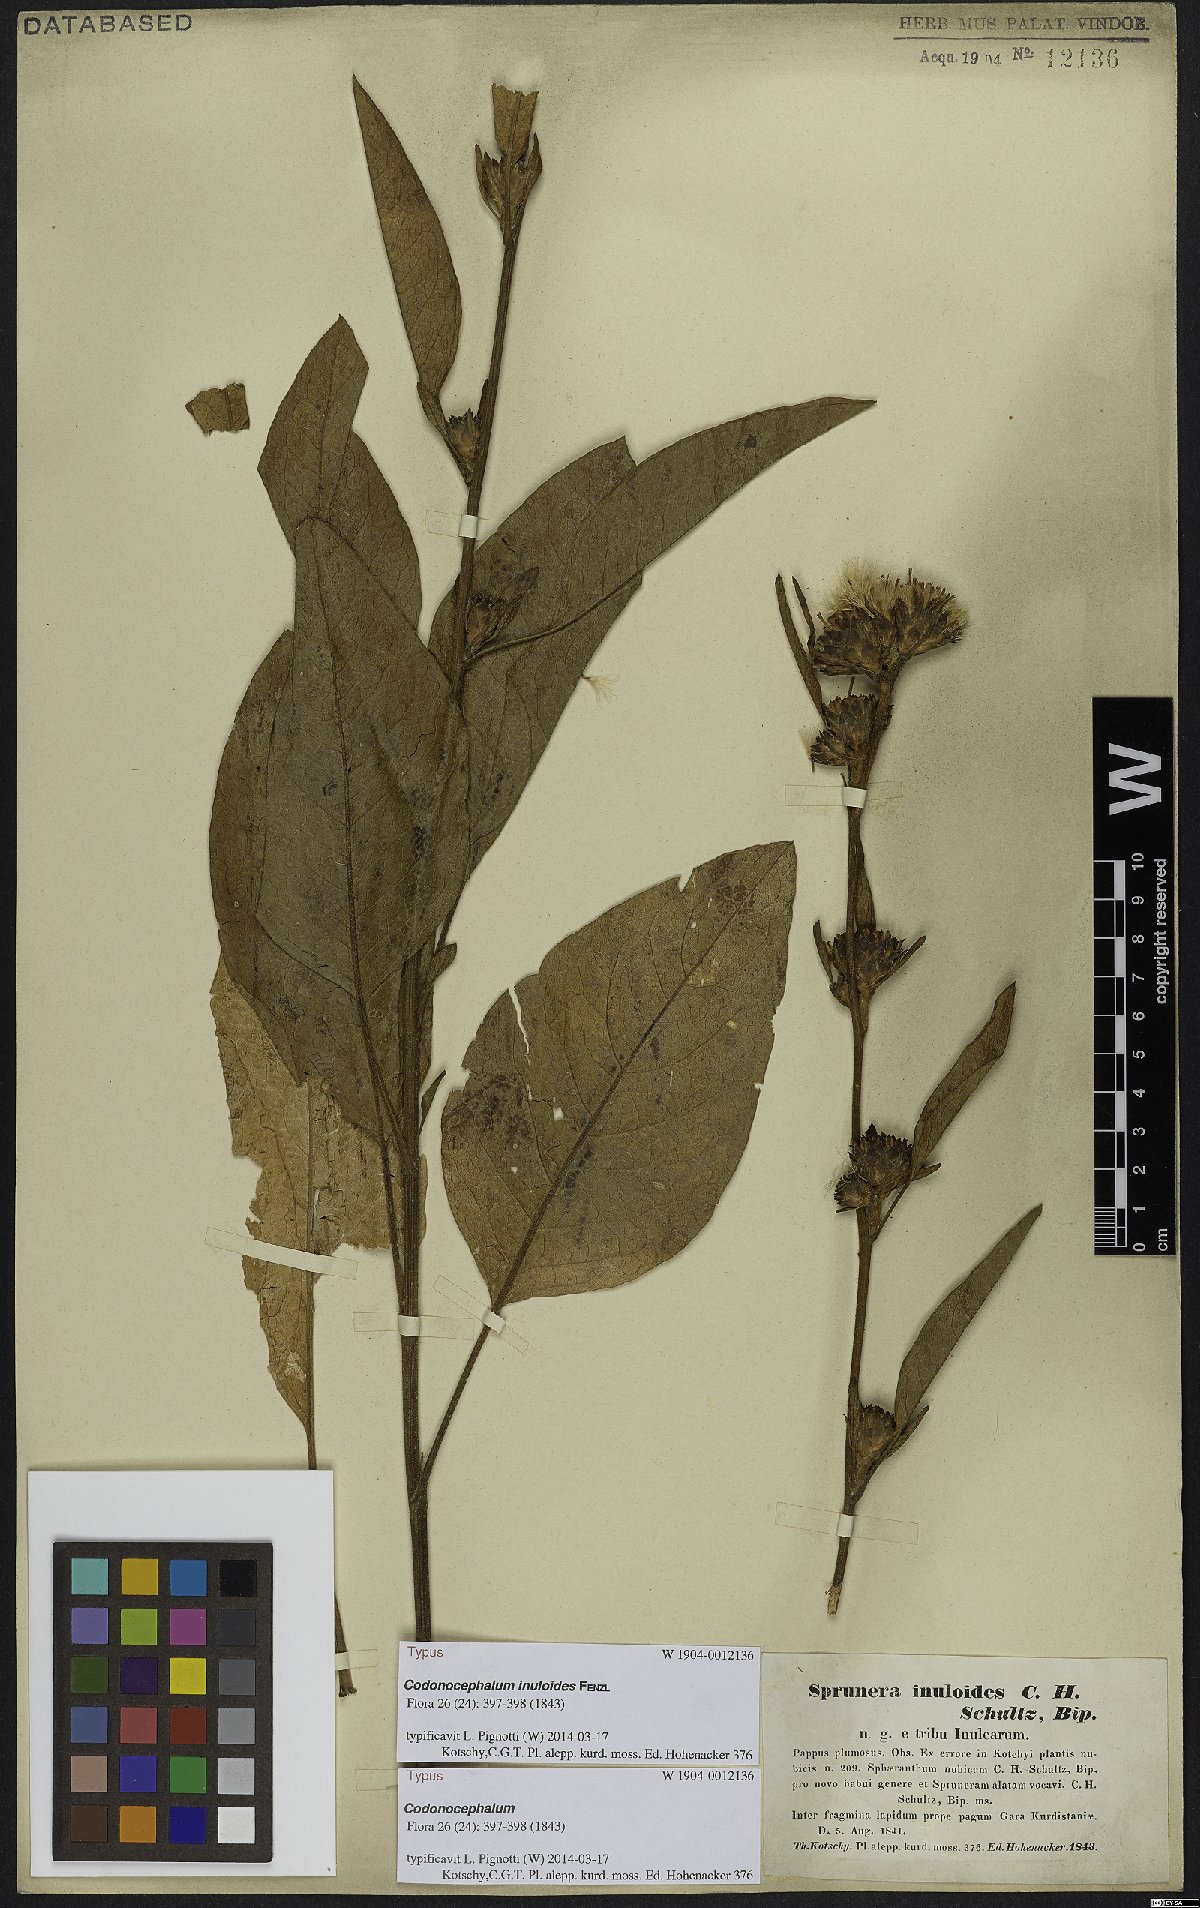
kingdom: Plantae
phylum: Tracheophyta
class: Magnoliopsida
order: Asterales
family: Asteraceae
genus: Inula
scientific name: Inula inuloides
